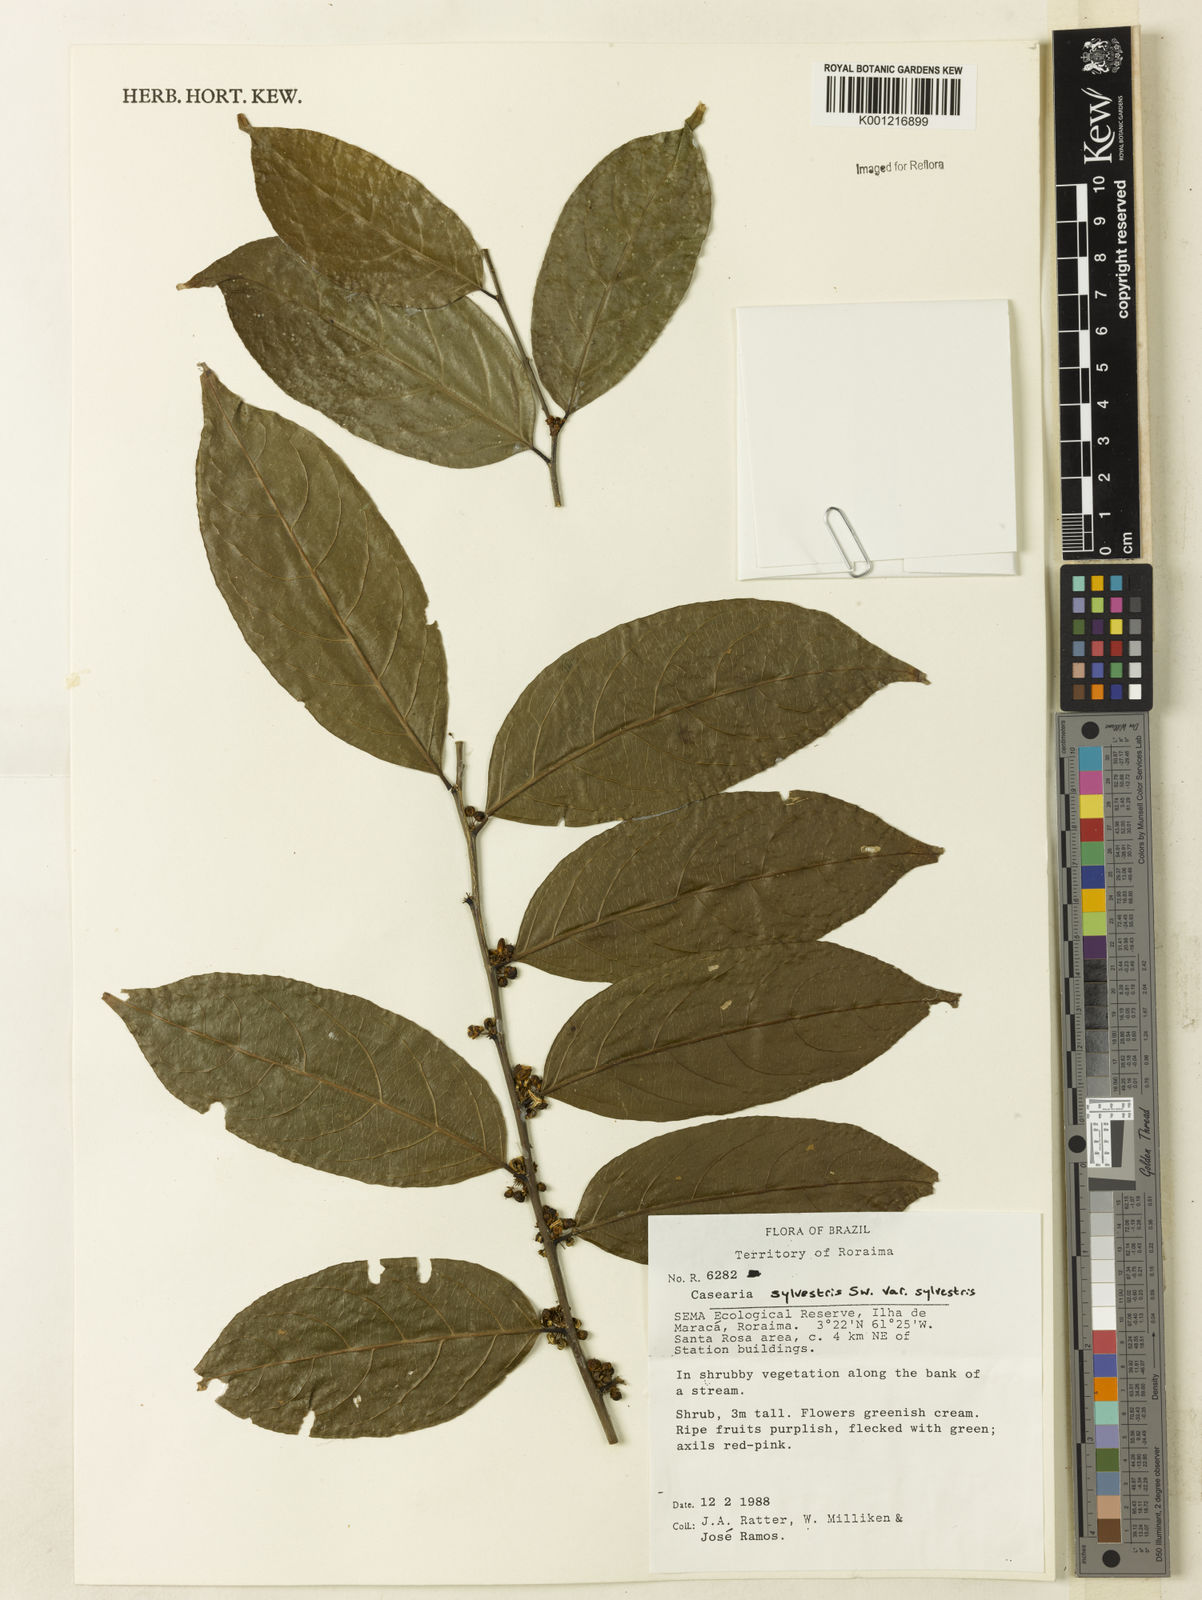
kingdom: Plantae
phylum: Tracheophyta
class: Magnoliopsida
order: Malpighiales
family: Salicaceae
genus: Casearia
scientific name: Casearia sylvestris
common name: Wild sage
